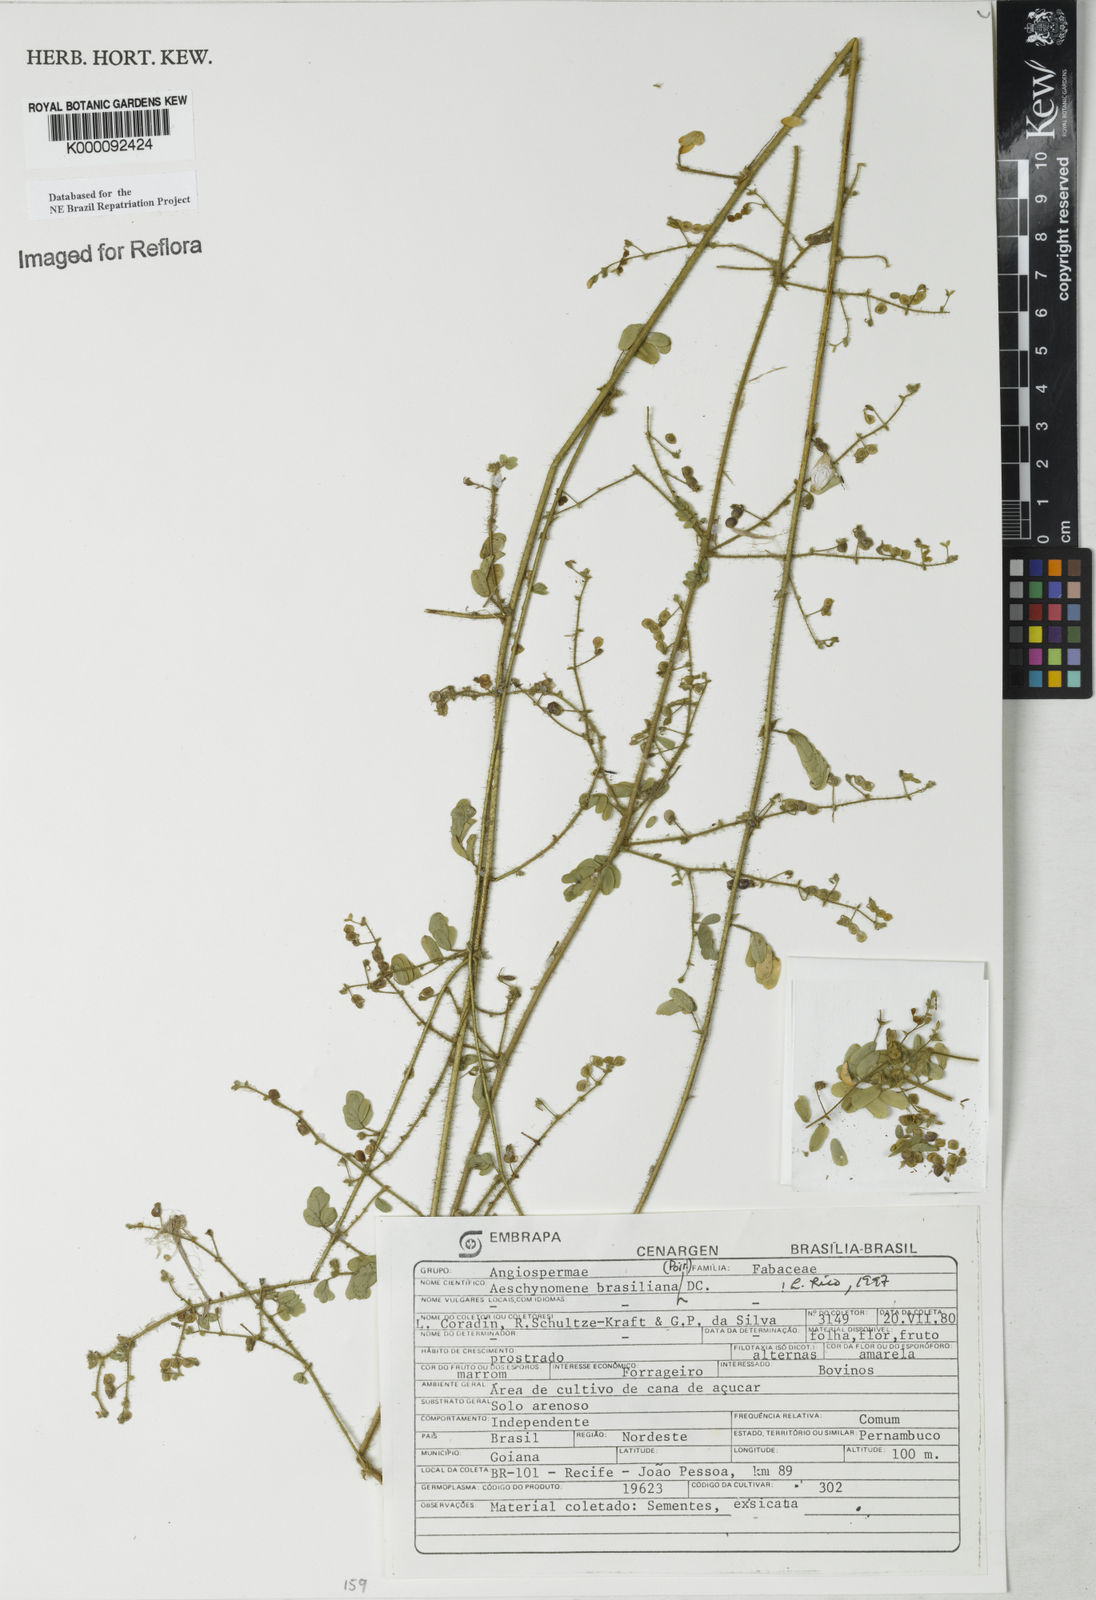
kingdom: Plantae
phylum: Tracheophyta
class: Magnoliopsida
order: Fabales
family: Fabaceae
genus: Ctenodon
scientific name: Ctenodon brasilianus
